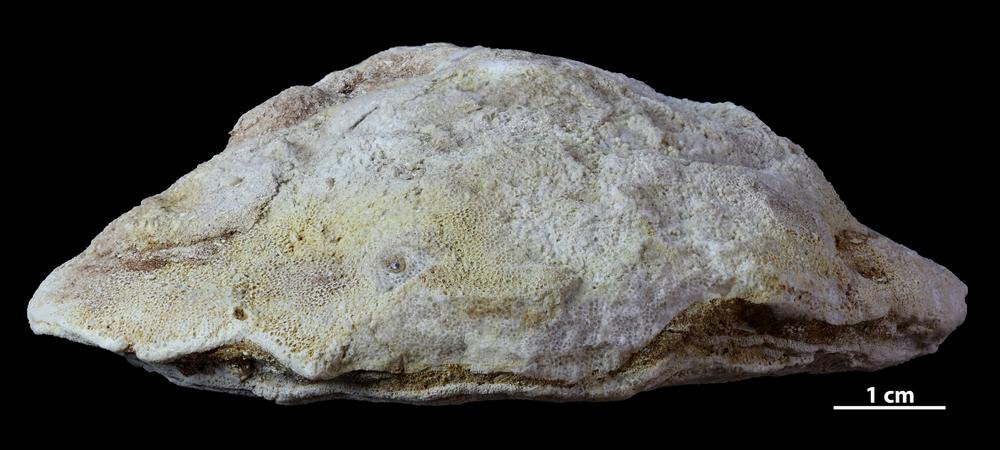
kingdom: Animalia
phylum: Bryozoa
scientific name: Bryozoa
